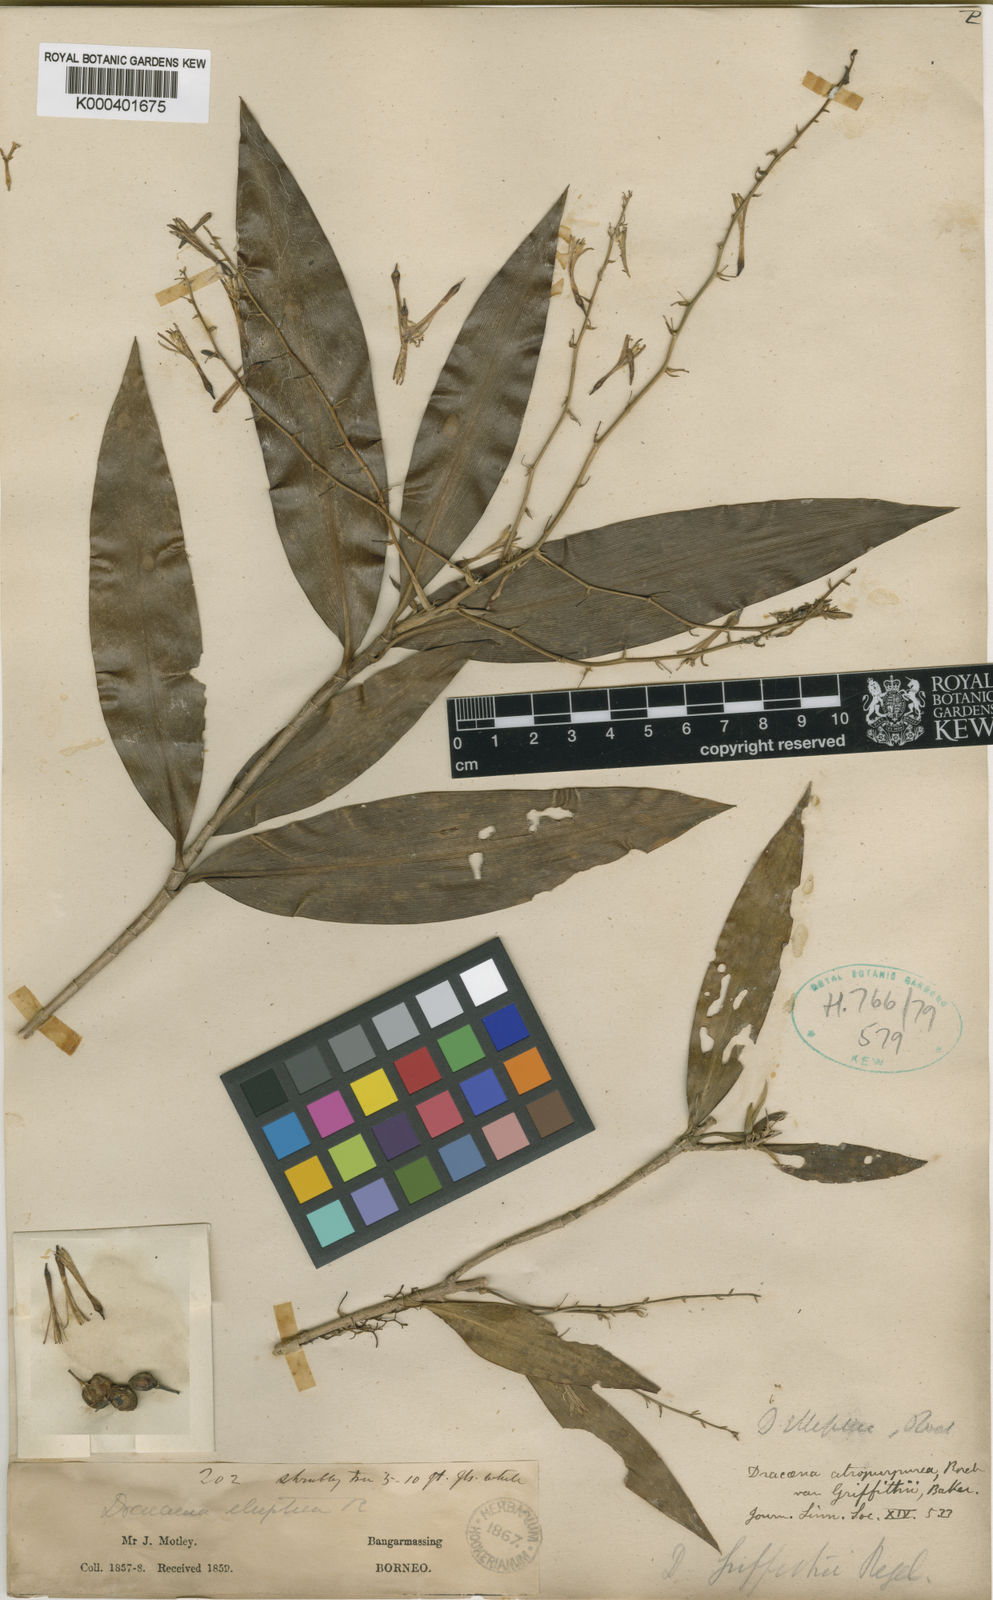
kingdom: Plantae
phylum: Tracheophyta
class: Liliopsida
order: Asparagales
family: Asparagaceae
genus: Dracaena
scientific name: Dracaena
